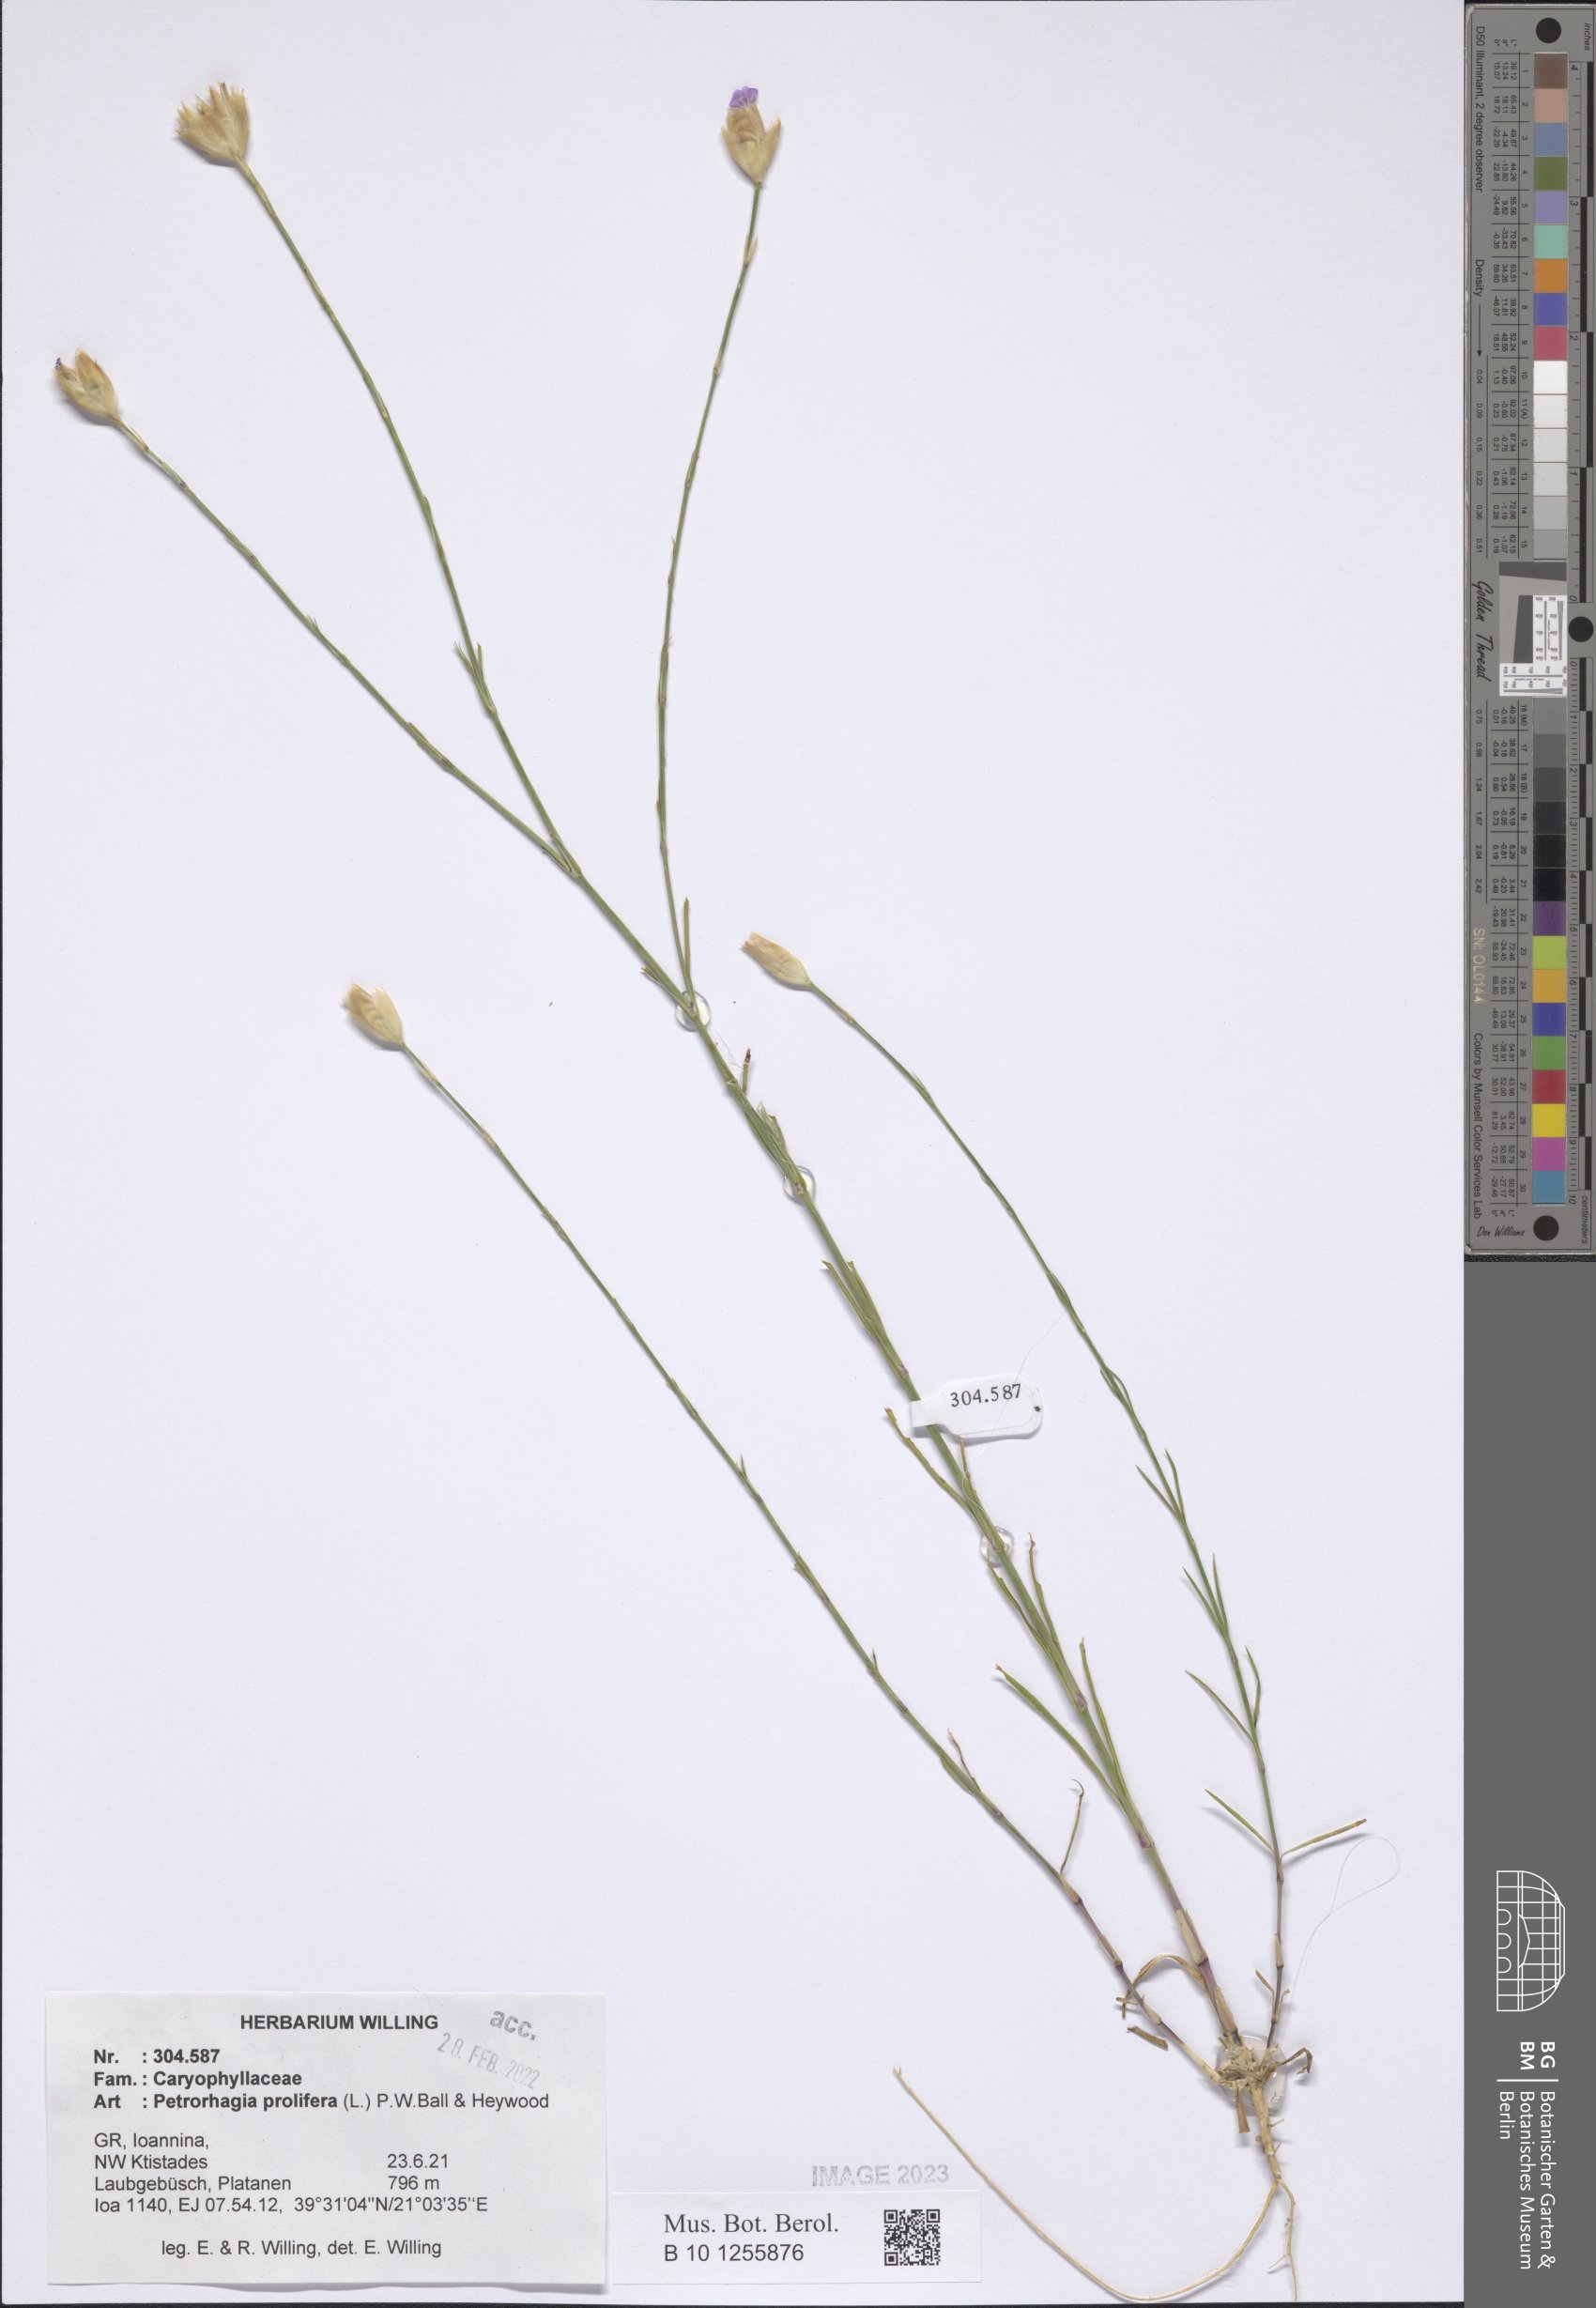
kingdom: Plantae
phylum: Tracheophyta
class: Magnoliopsida
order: Caryophyllales
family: Caryophyllaceae
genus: Petrorhagia
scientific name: Petrorhagia prolifera
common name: Proliferous pink
